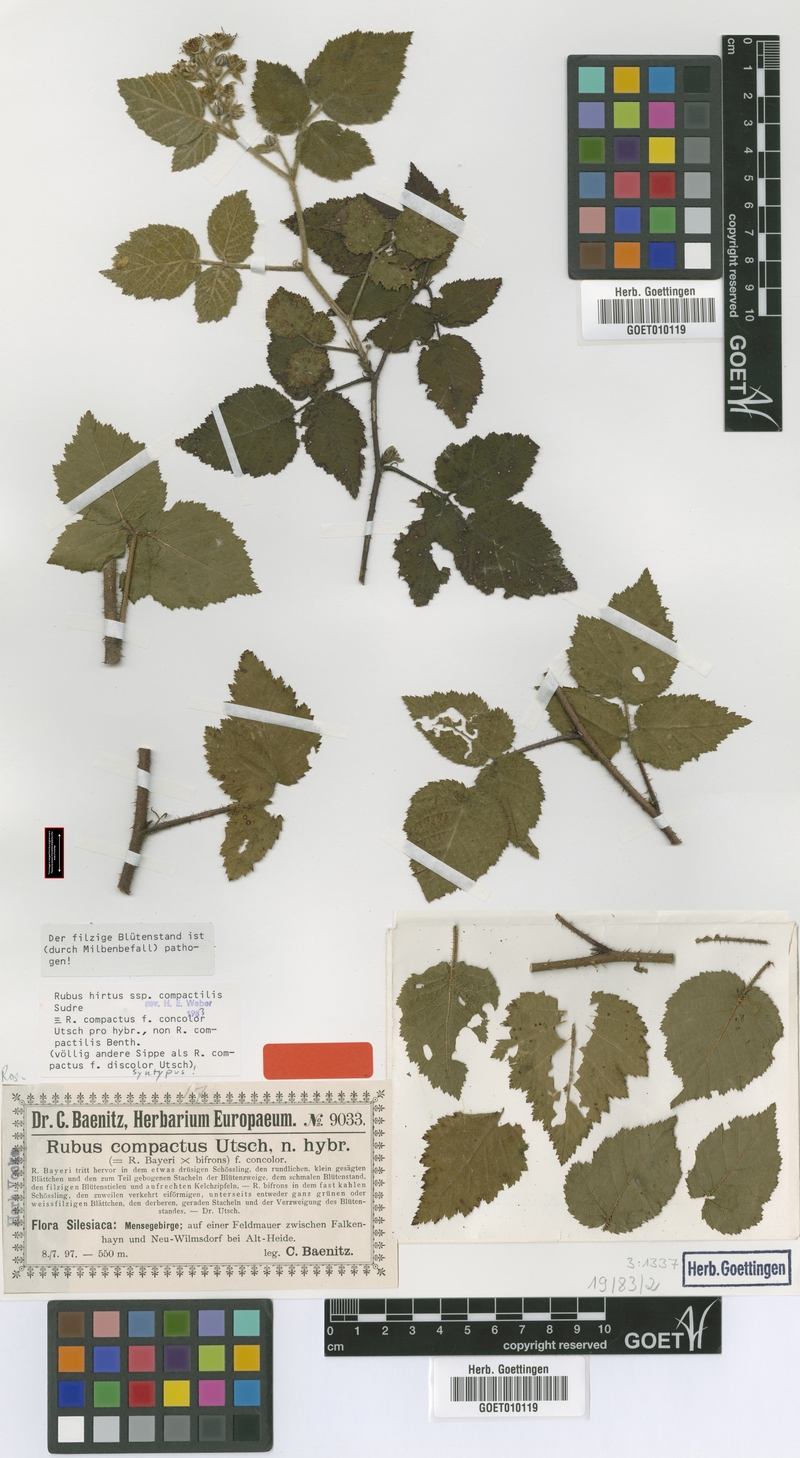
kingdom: Plantae
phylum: Tracheophyta
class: Magnoliopsida
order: Rosales
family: Rosaceae
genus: Rubus
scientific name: Rubus hirtus
